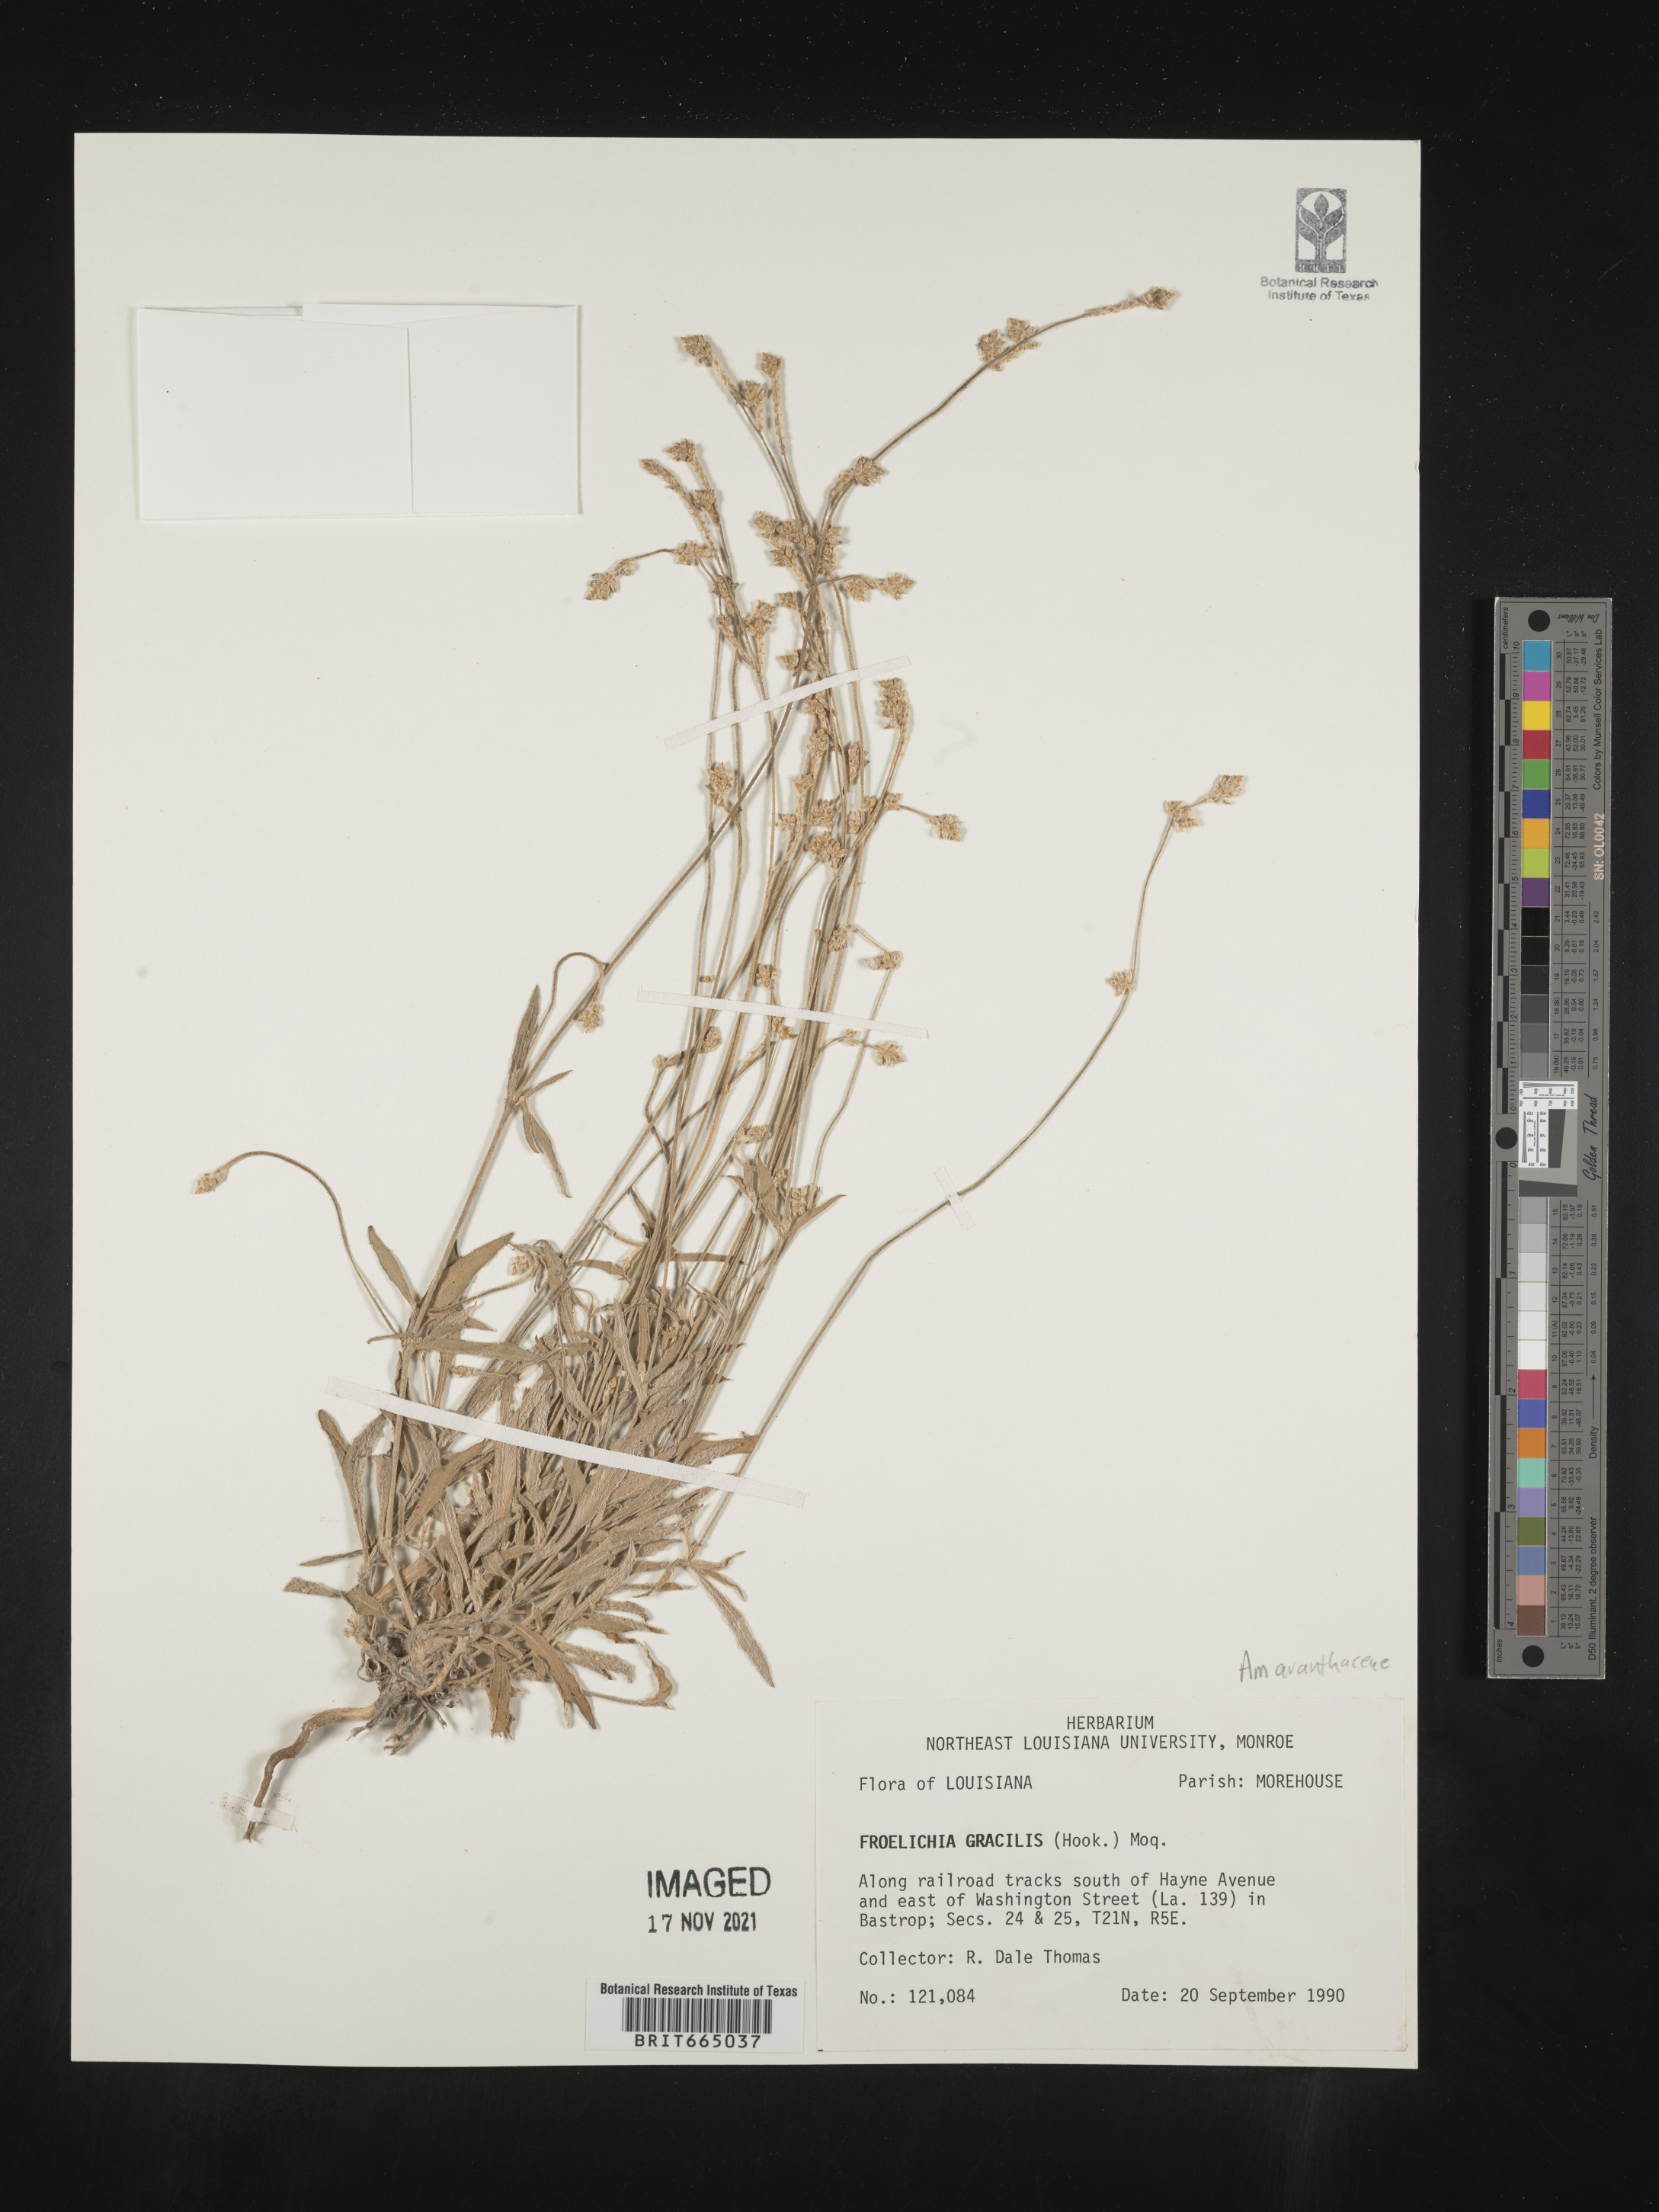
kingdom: Plantae
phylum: Tracheophyta
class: Magnoliopsida
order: Caryophyllales
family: Amaranthaceae
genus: Froelichia
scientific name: Froelichia gracilis
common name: Slender cottonweed
